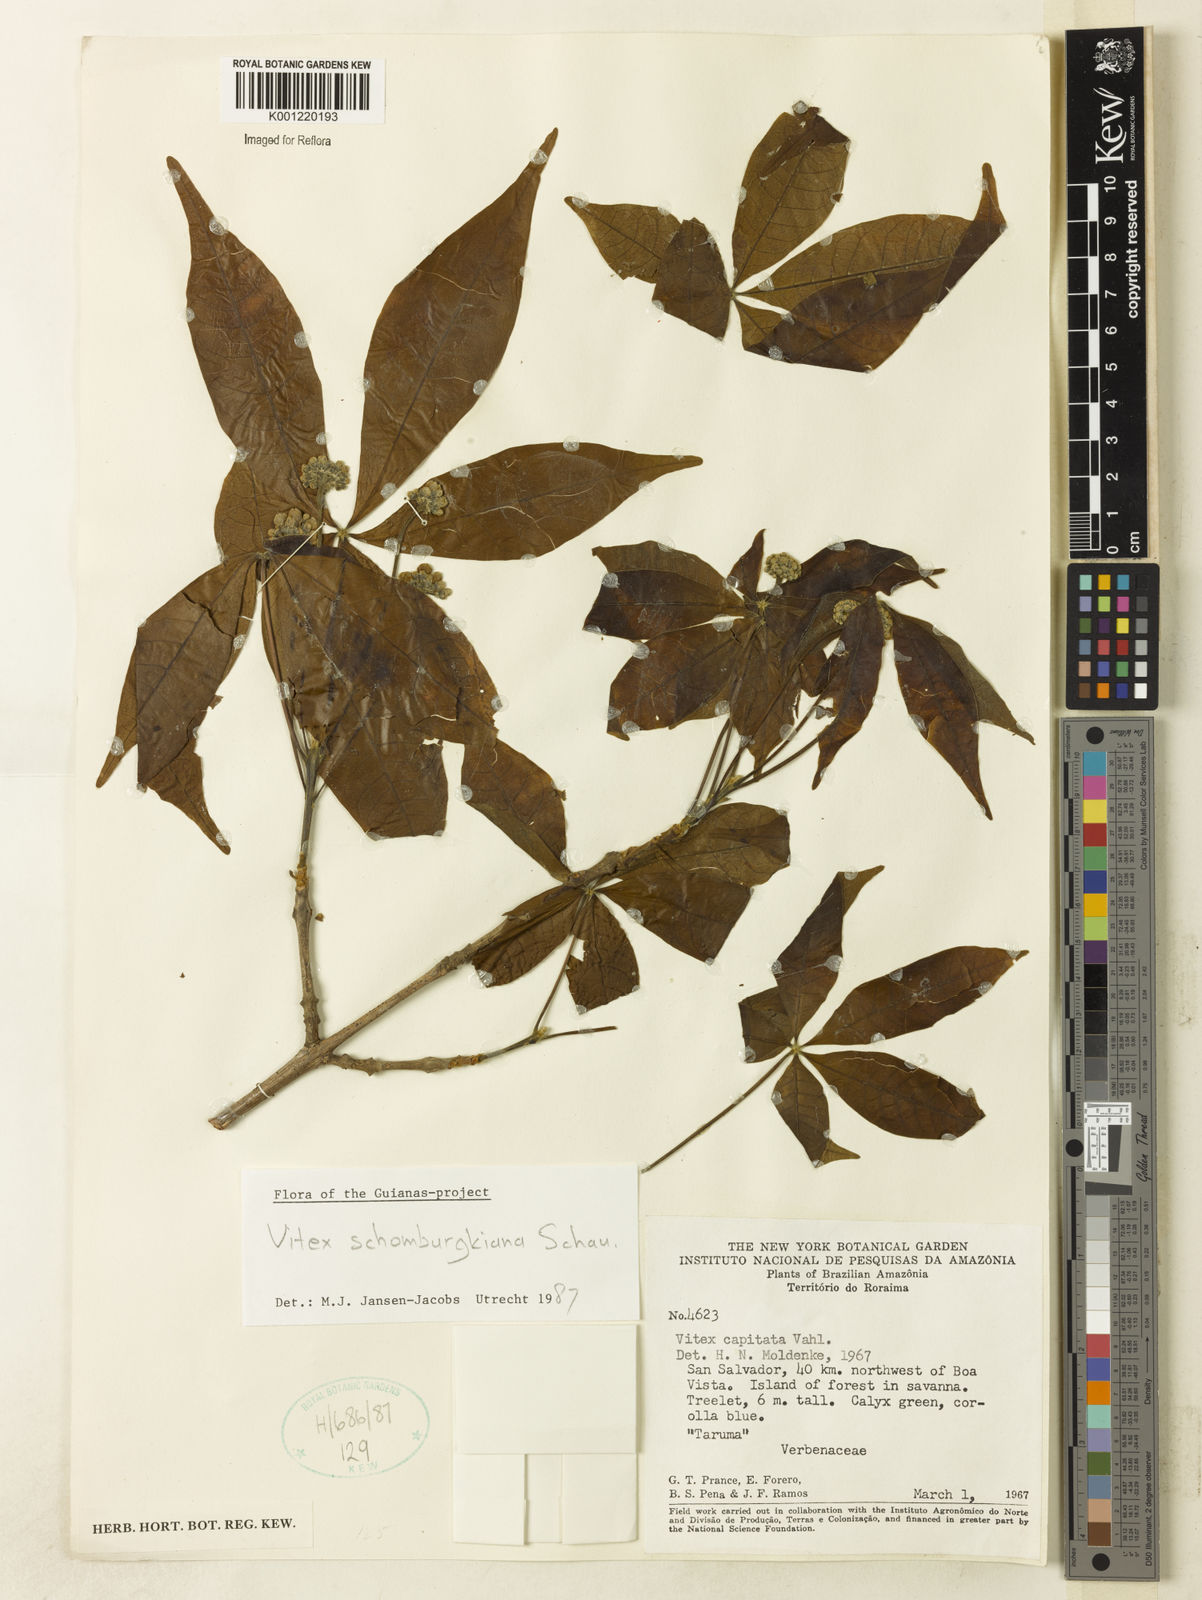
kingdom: Plantae
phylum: Tracheophyta
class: Magnoliopsida
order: Lamiales
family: Lamiaceae
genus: Vitex
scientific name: Vitex schomburgkiana
